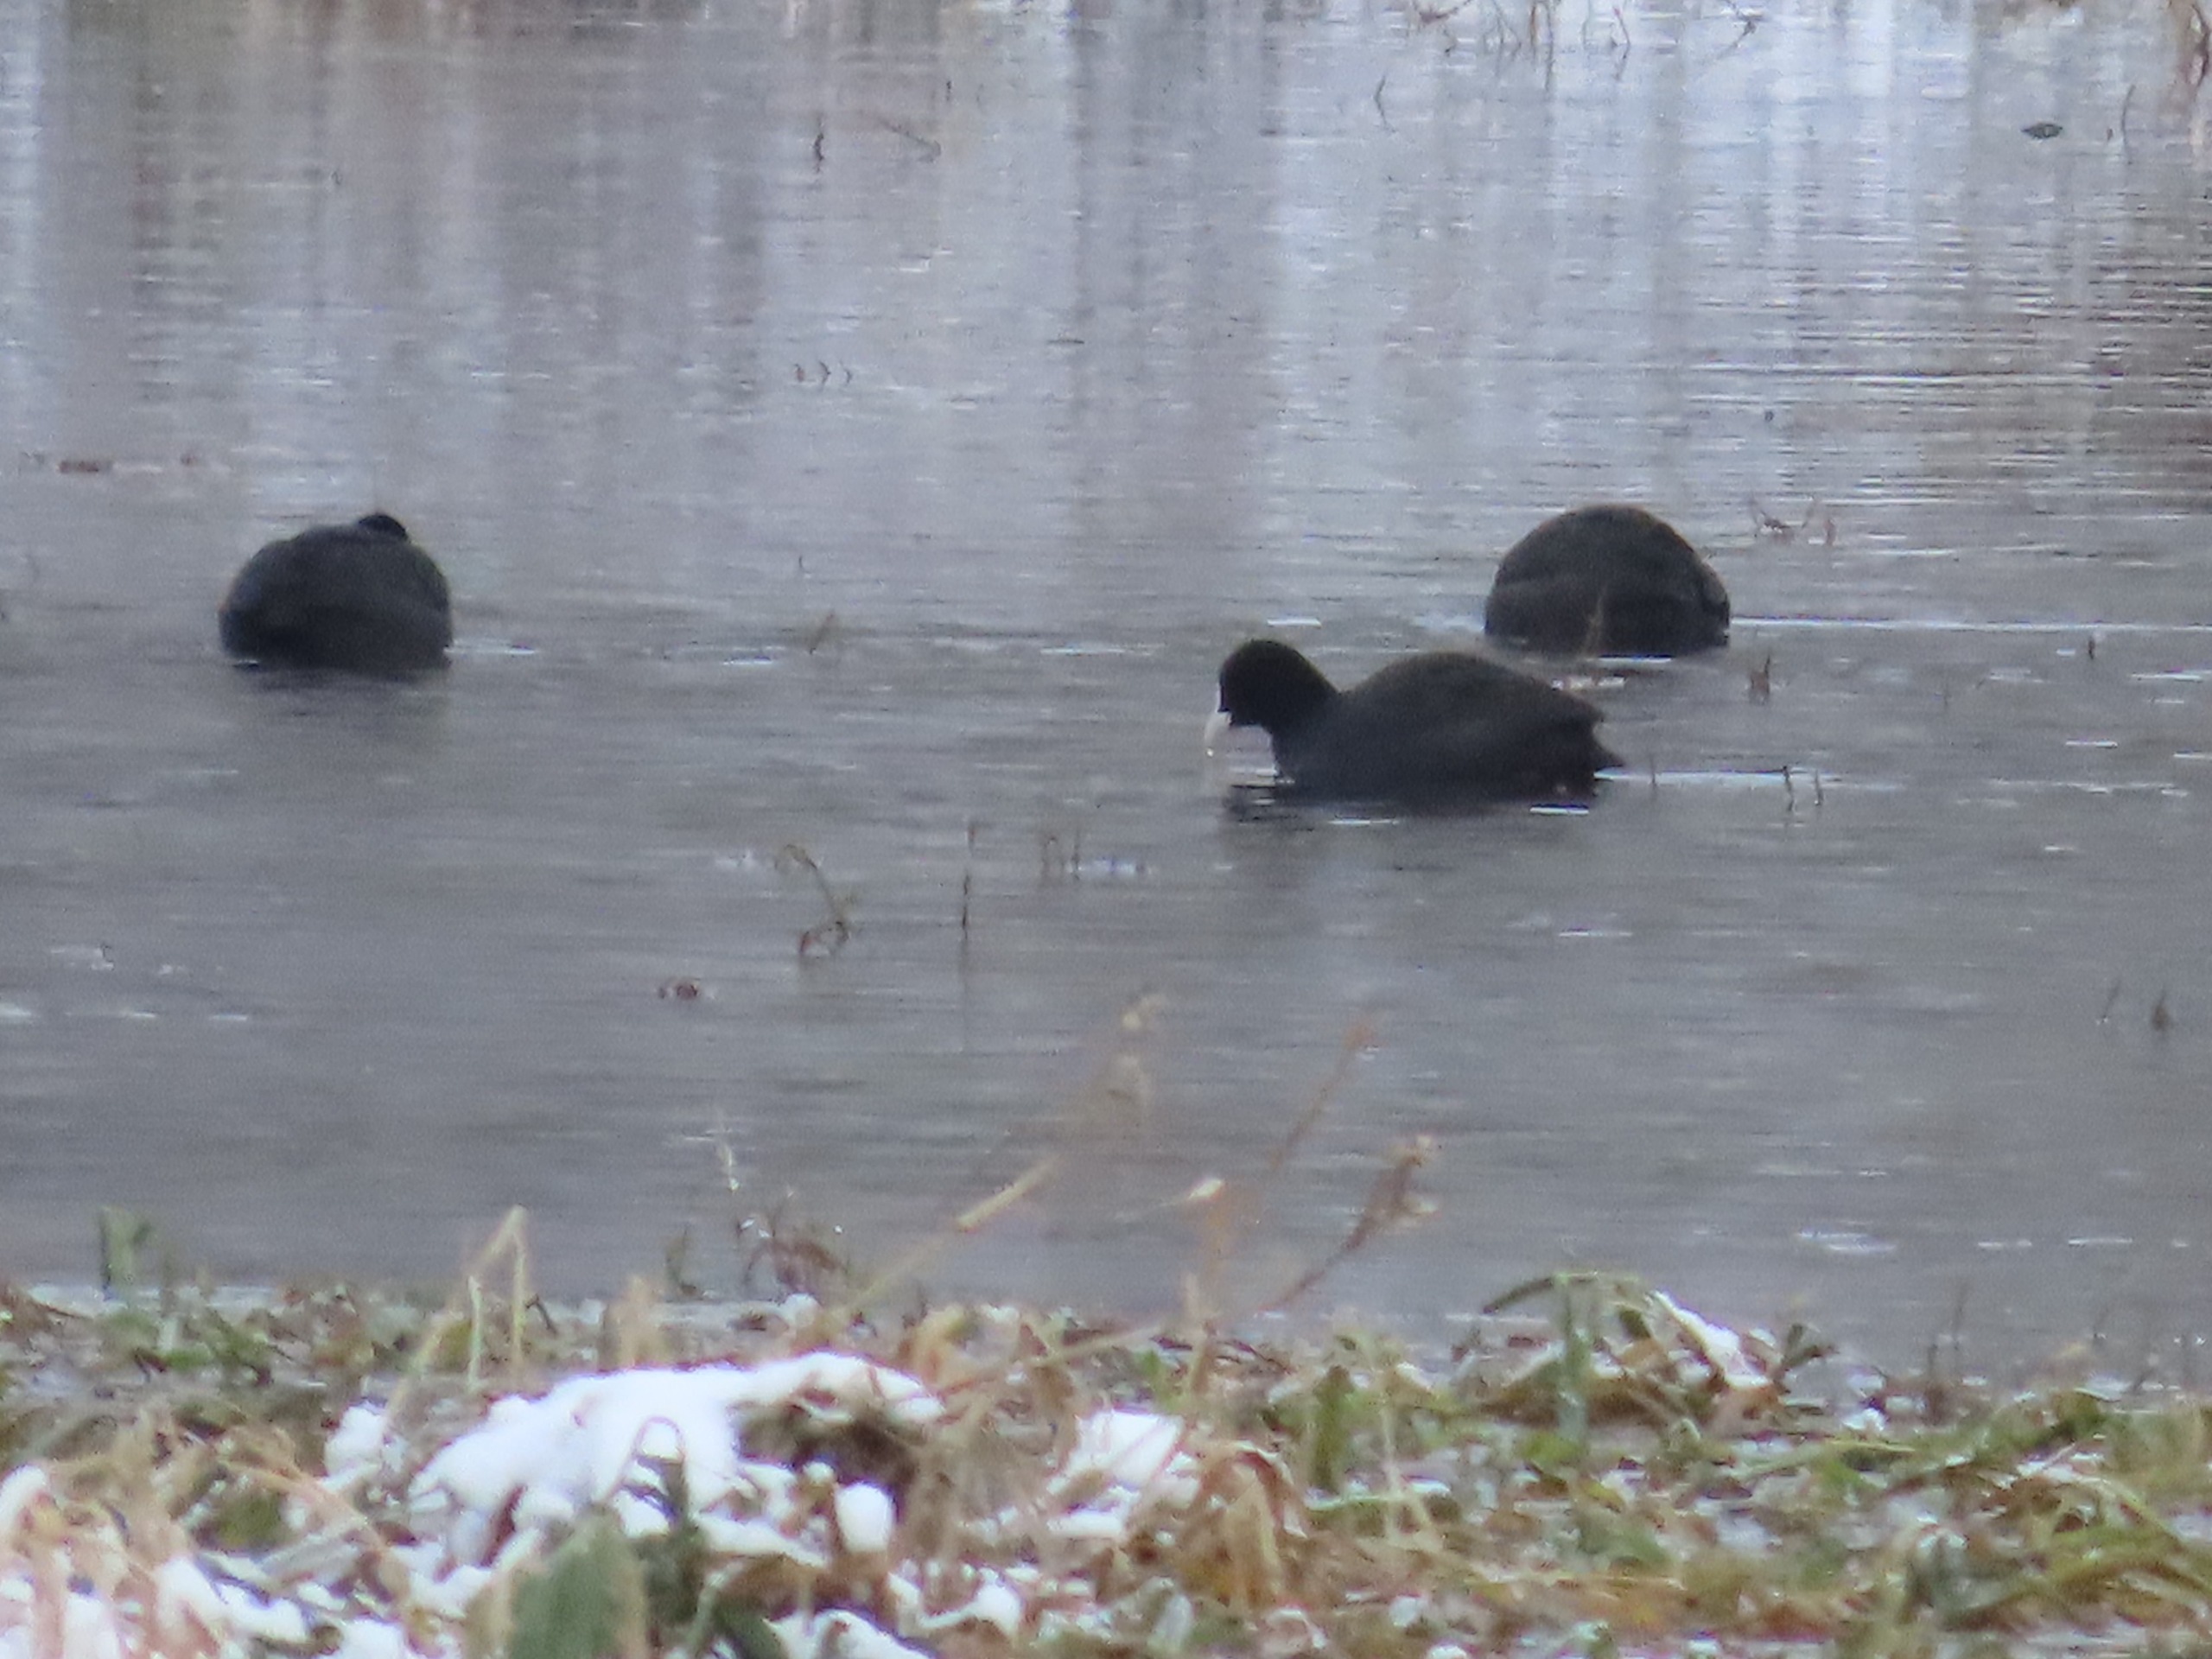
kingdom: Animalia
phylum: Chordata
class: Aves
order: Gruiformes
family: Rallidae
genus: Fulica
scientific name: Fulica atra
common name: Blishøne
